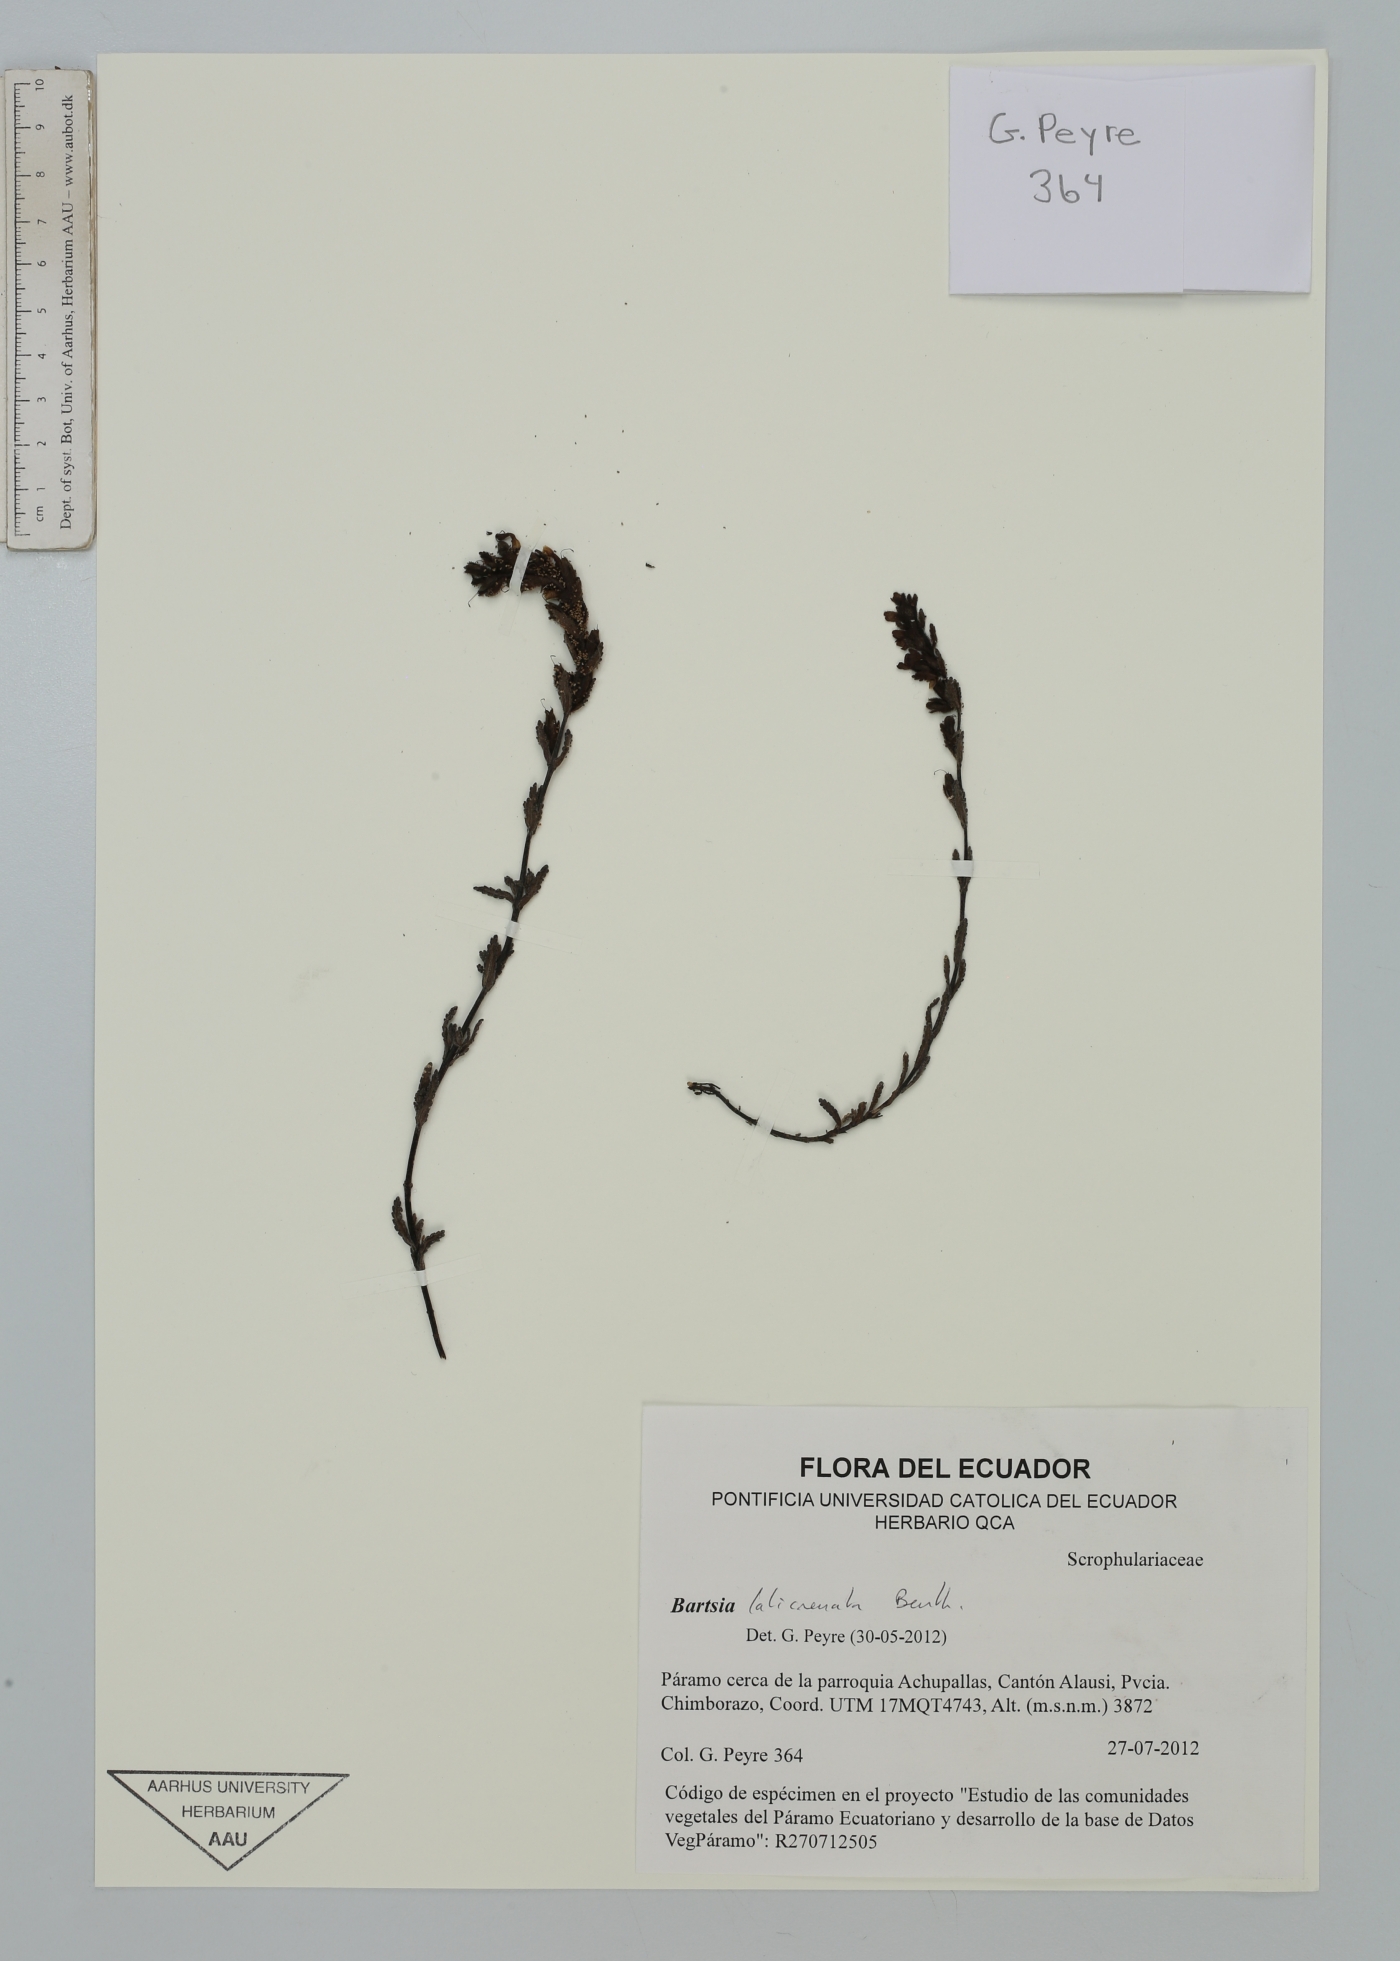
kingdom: Plantae
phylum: Tracheophyta
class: Magnoliopsida
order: Lamiales
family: Orobanchaceae
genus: Neobartsia
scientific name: Neobartsia laticrenata
